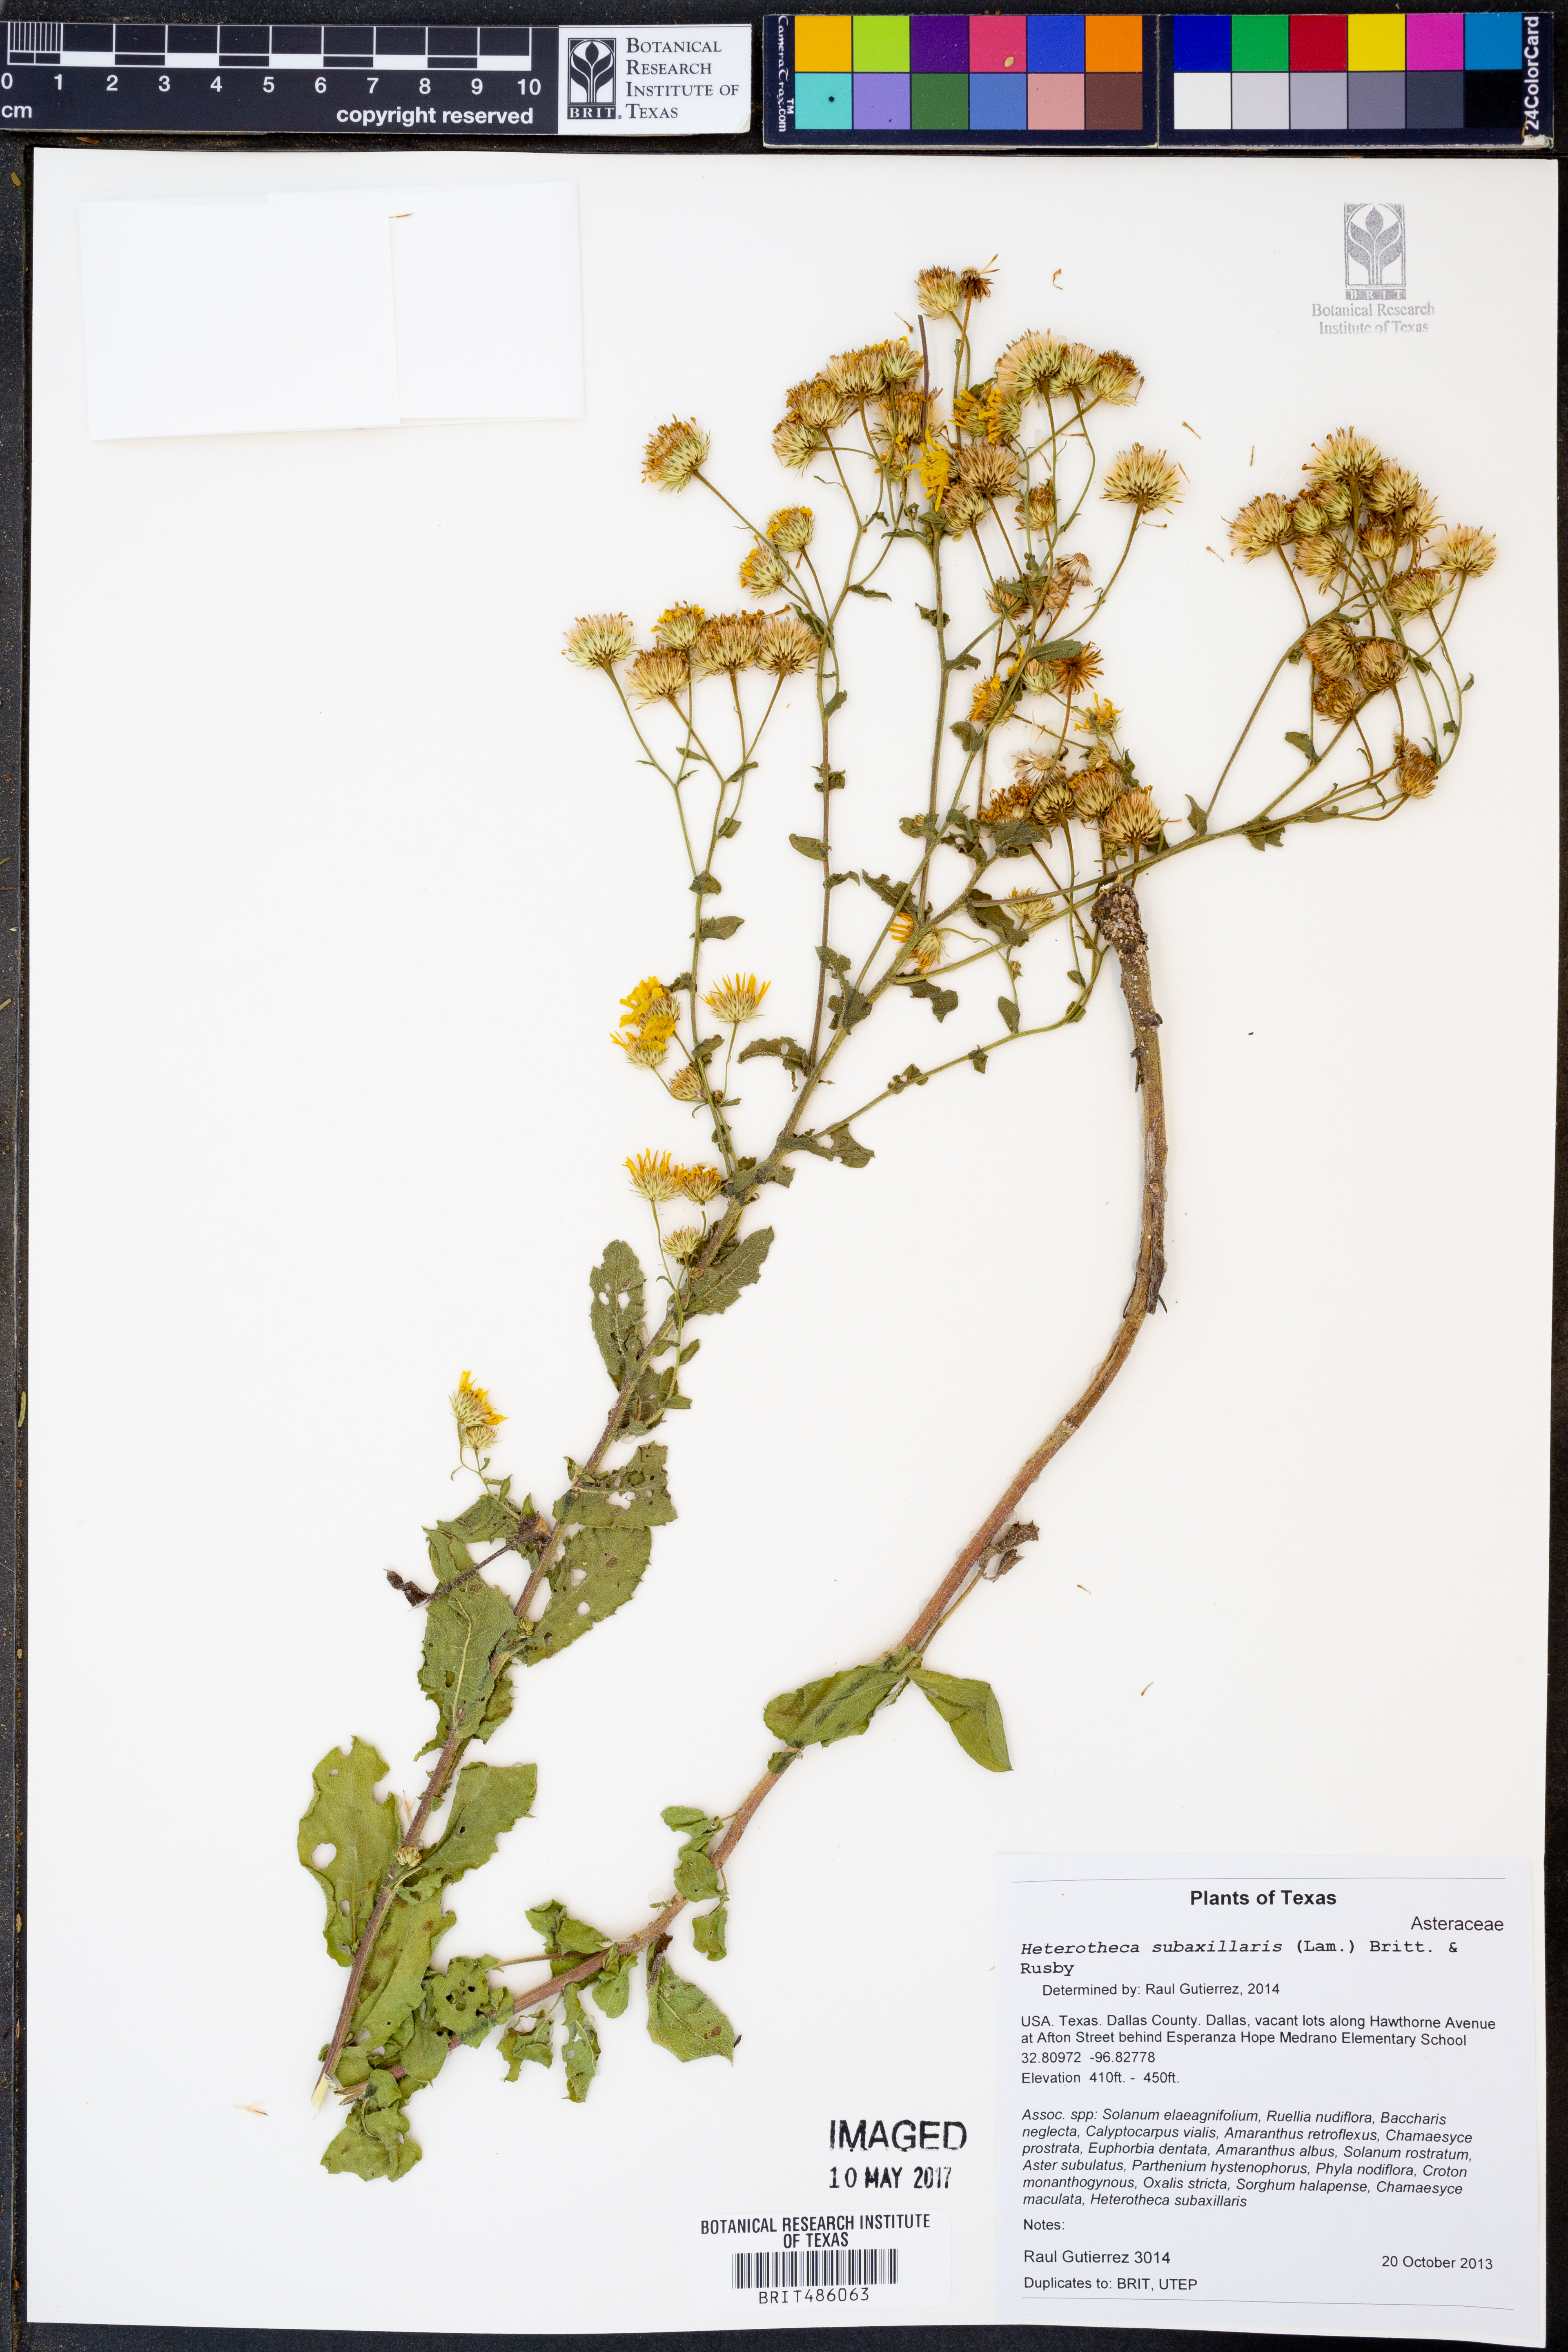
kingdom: Plantae
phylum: Tracheophyta
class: Magnoliopsida
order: Asterales
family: Asteraceae
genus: Heterotheca
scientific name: Heterotheca subaxillaris
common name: Camphorweed
